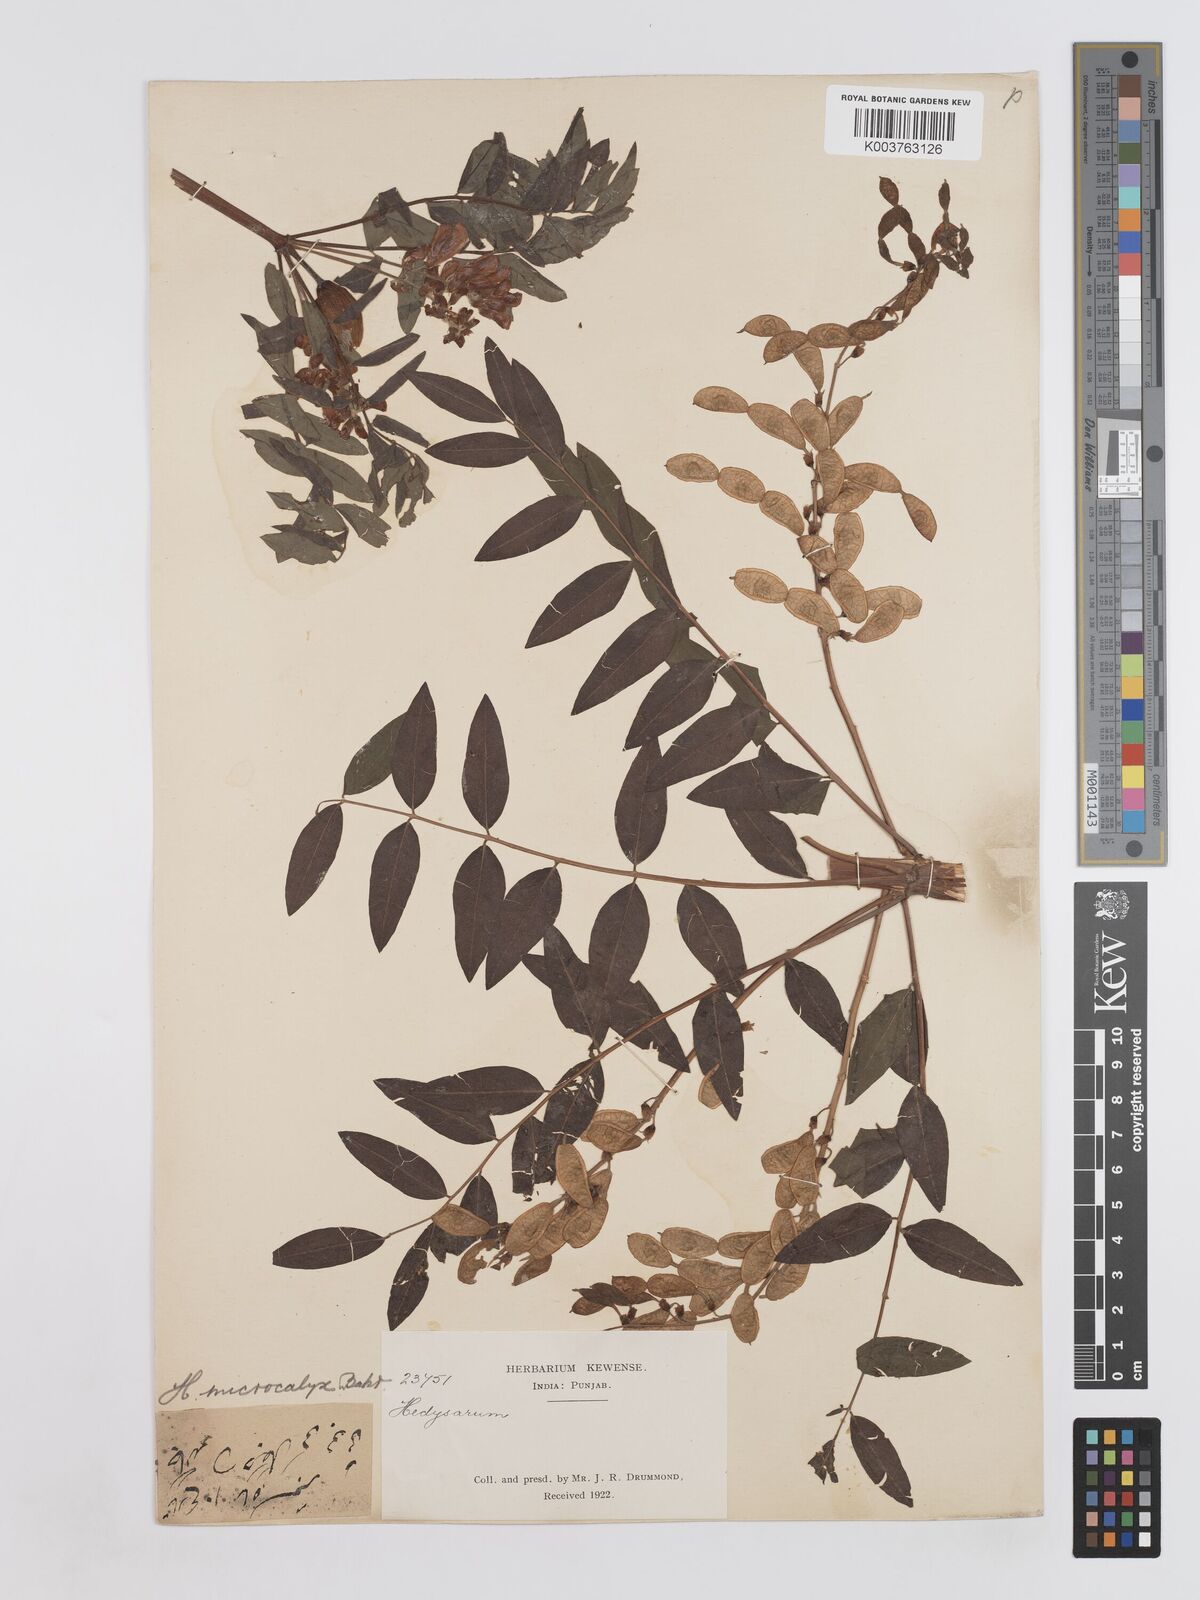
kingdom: Plantae
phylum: Tracheophyta
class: Magnoliopsida
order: Fabales
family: Fabaceae
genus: Hedysarum
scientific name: Hedysarum microcalyx
